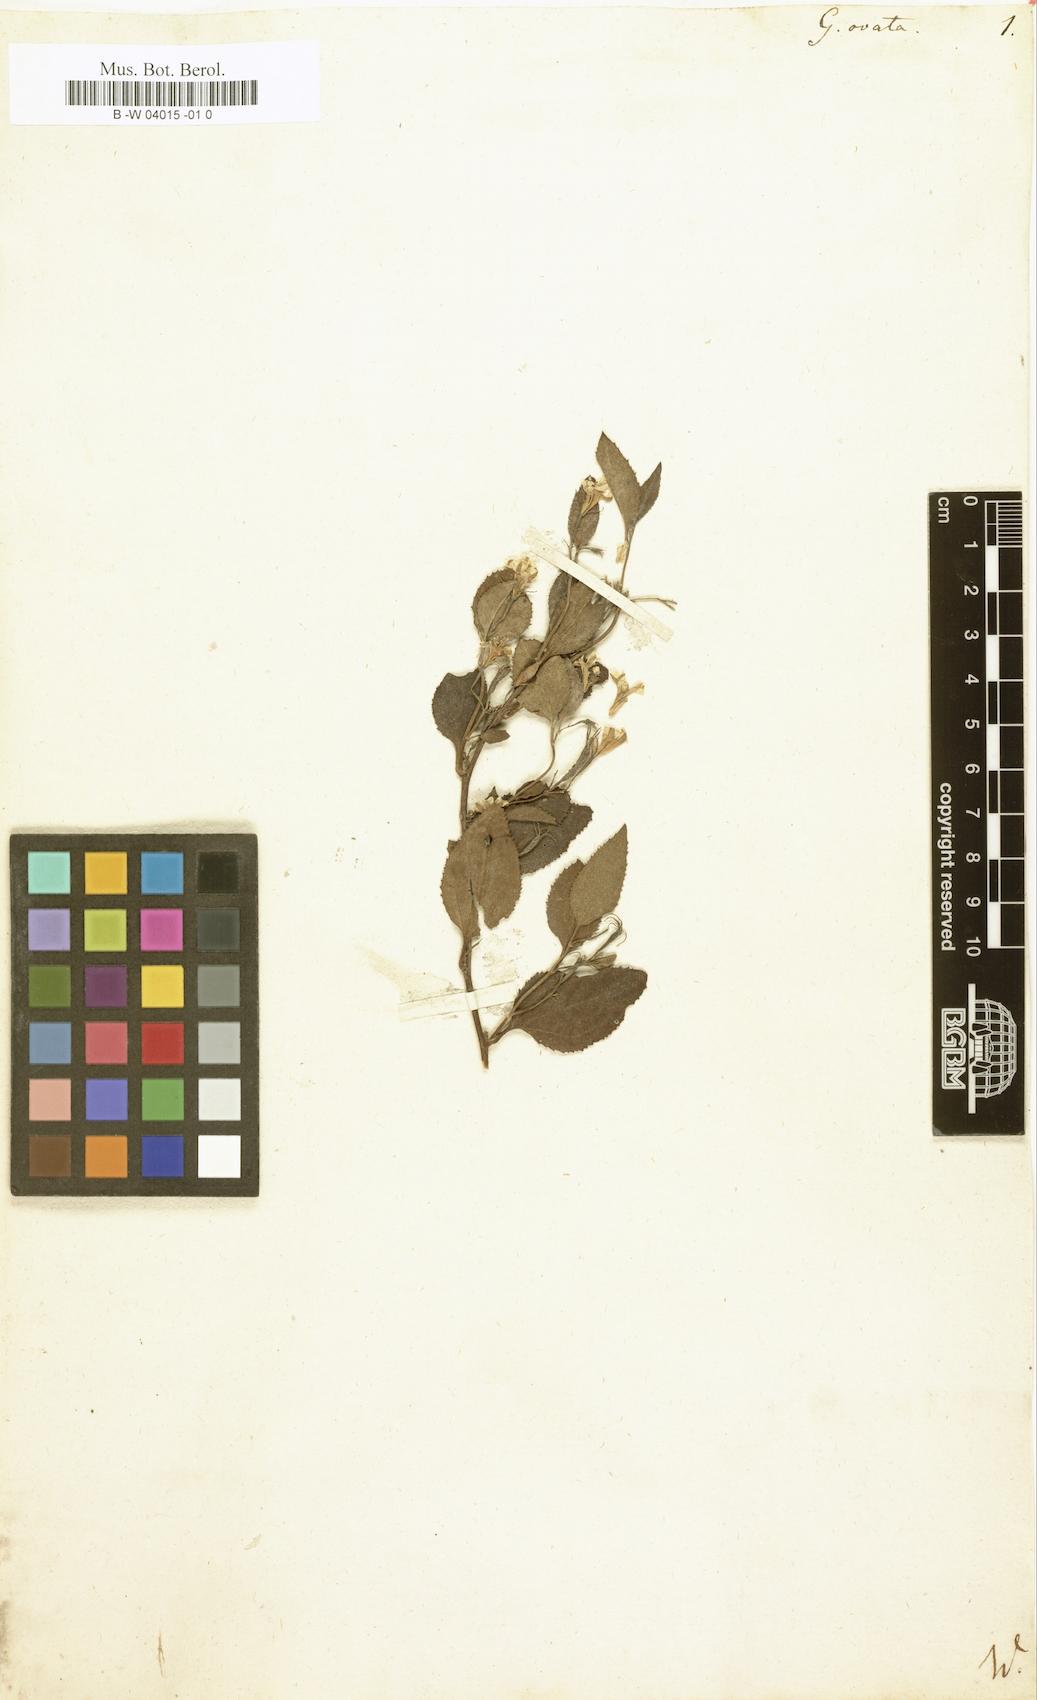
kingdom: Plantae
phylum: Tracheophyta
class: Magnoliopsida
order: Asterales
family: Goodeniaceae
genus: Goodenia
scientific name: Goodenia ovata
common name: Hop goodenia
